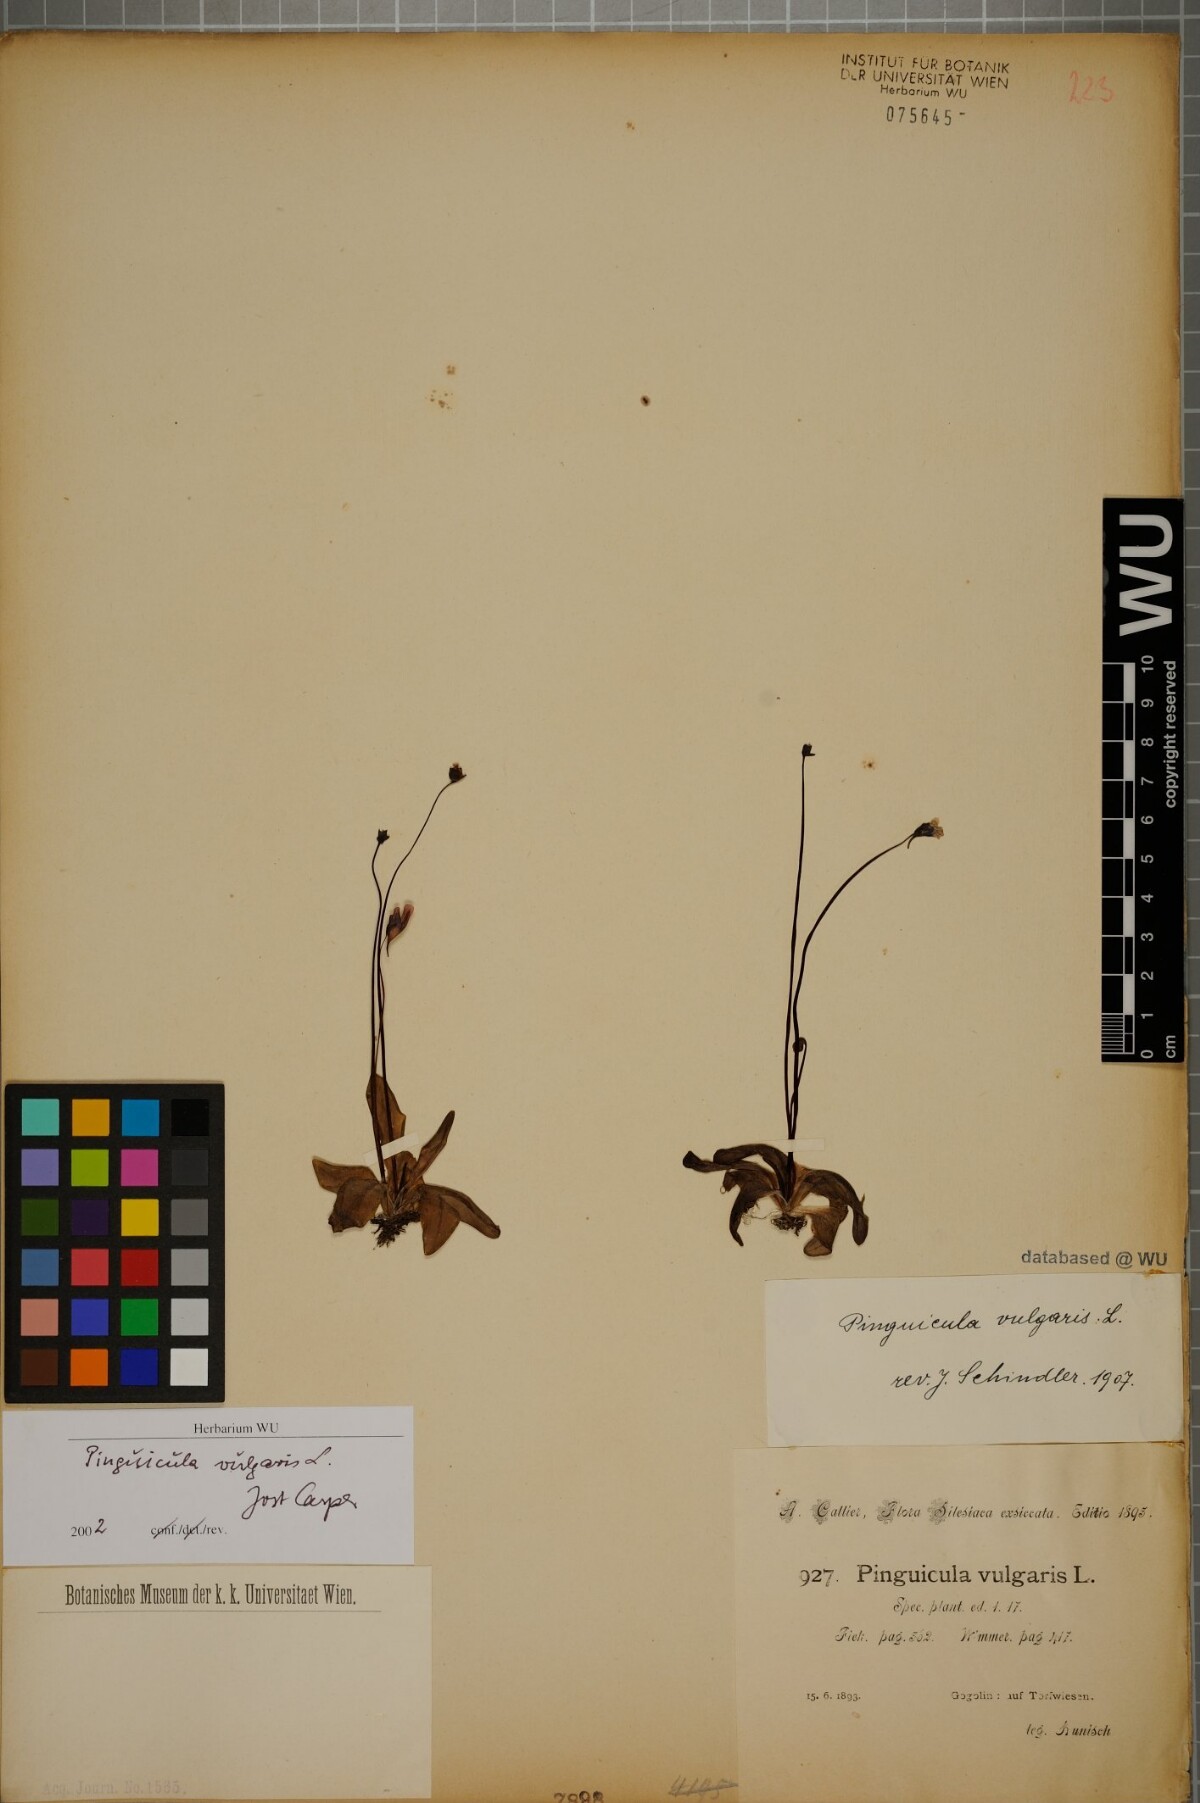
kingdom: Plantae
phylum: Tracheophyta
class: Magnoliopsida
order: Lamiales
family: Lentibulariaceae
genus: Pinguicula
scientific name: Pinguicula vulgaris
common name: Common butterwort
